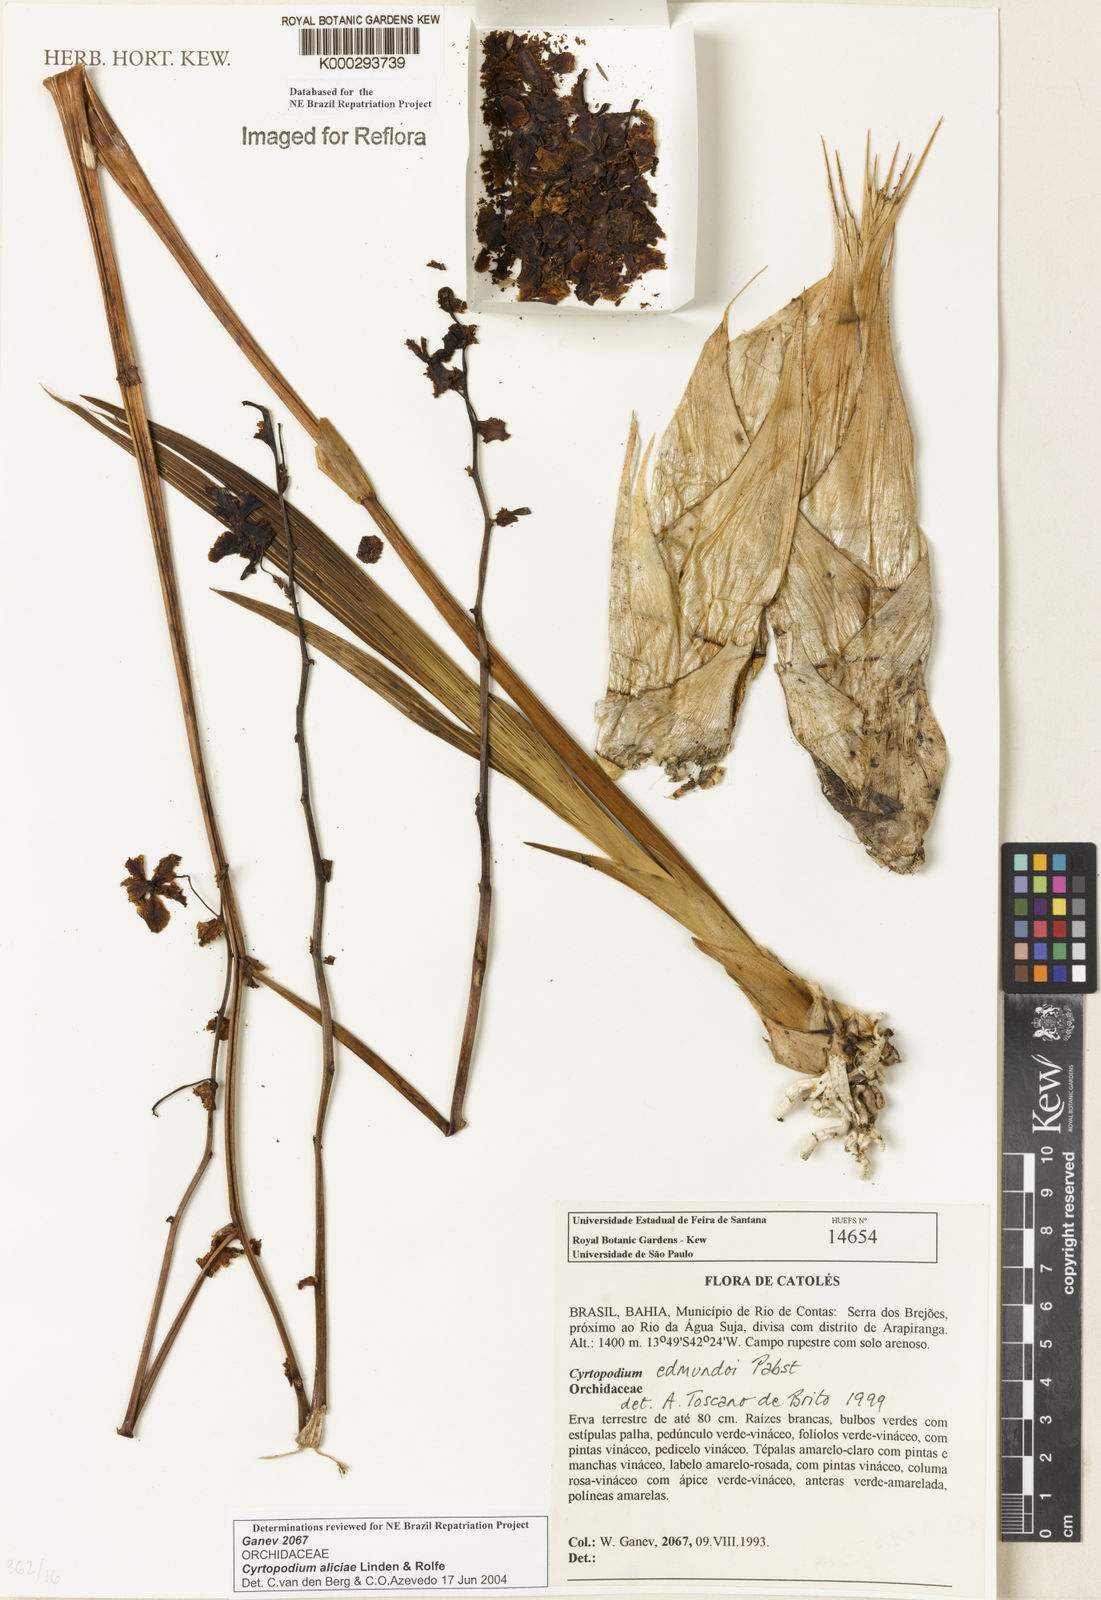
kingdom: Plantae
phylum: Tracheophyta
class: Liliopsida
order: Asparagales
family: Orchidaceae
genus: Cyrtopodium
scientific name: Cyrtopodium aliciae
